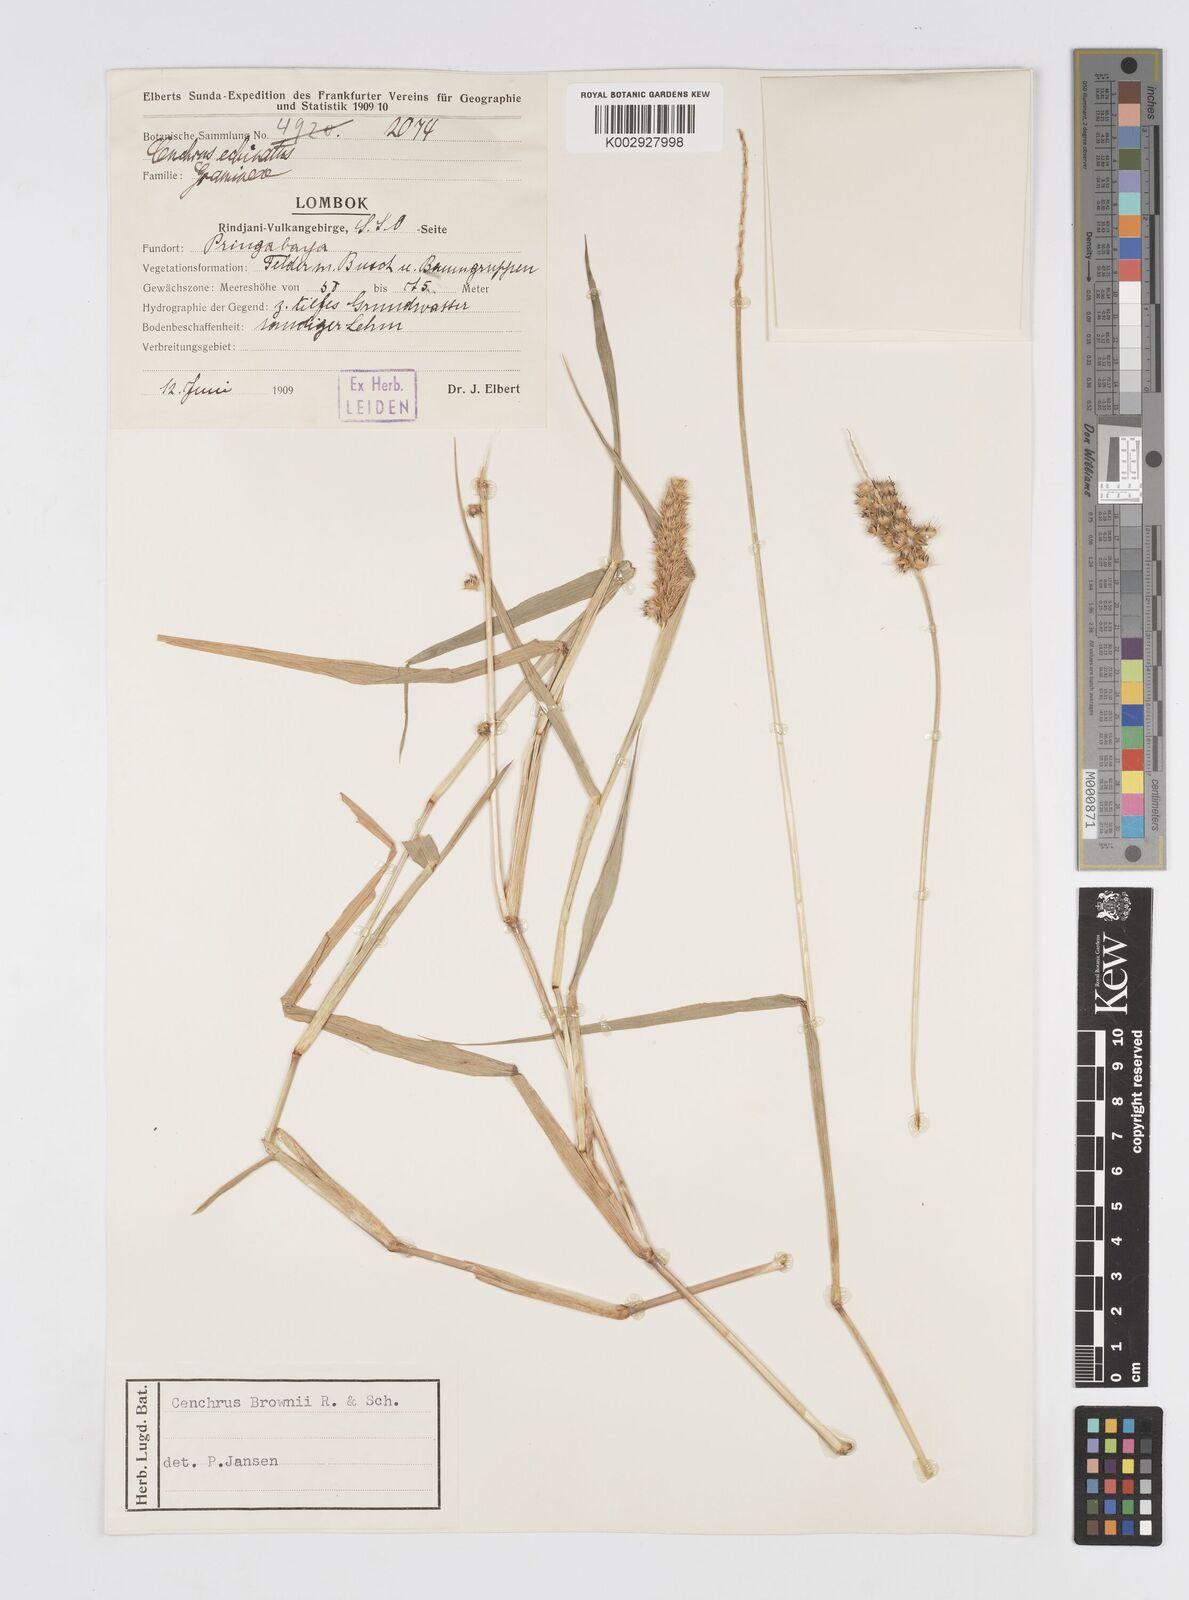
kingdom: Plantae
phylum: Tracheophyta
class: Liliopsida
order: Poales
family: Poaceae
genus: Cenchrus
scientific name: Cenchrus brownii
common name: Slim-bristle sandbur
